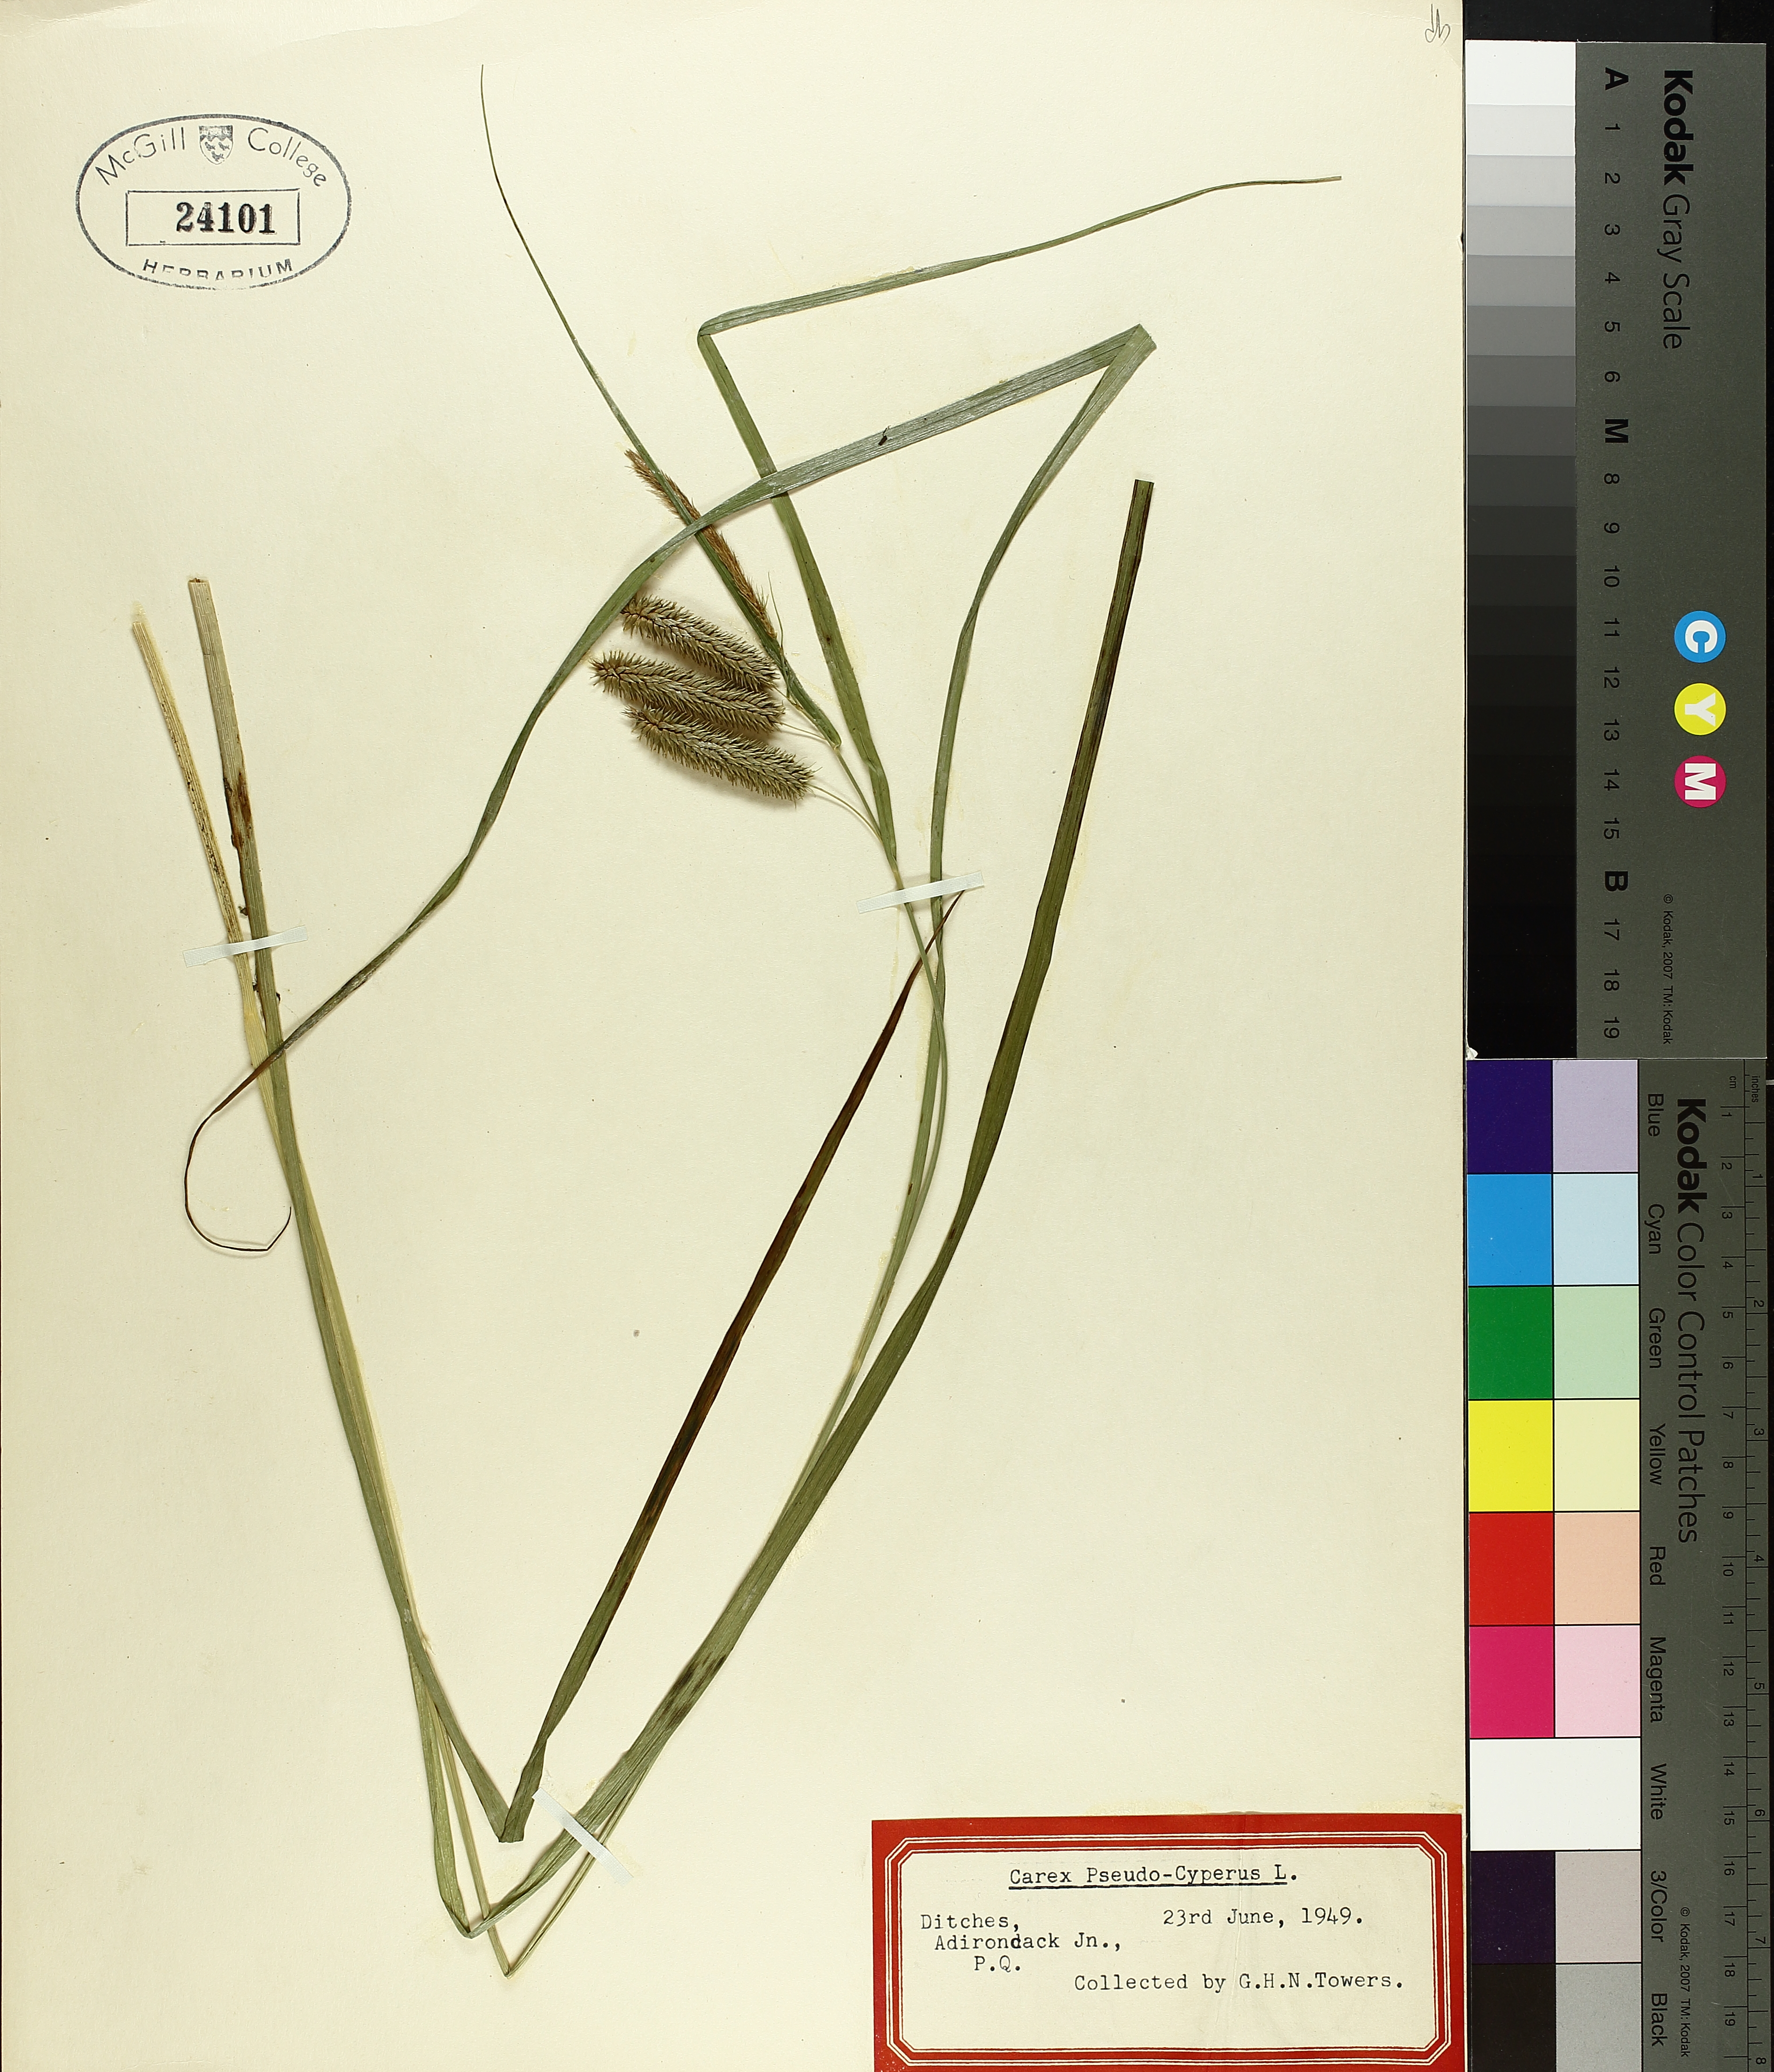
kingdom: Plantae
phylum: Tracheophyta
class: Liliopsida
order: Poales
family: Cyperaceae
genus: Carex
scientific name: Carex pseudocyperus
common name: Cyperus sedge
